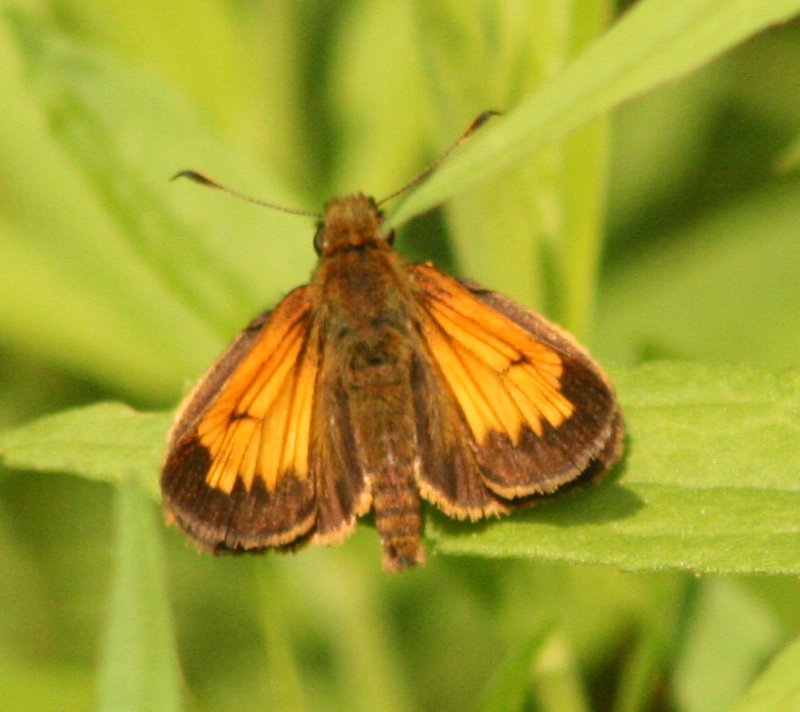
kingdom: Animalia
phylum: Arthropoda
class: Insecta
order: Lepidoptera
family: Hesperiidae
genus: Lon
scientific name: Lon hobomok
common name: Hobomok Skipper
